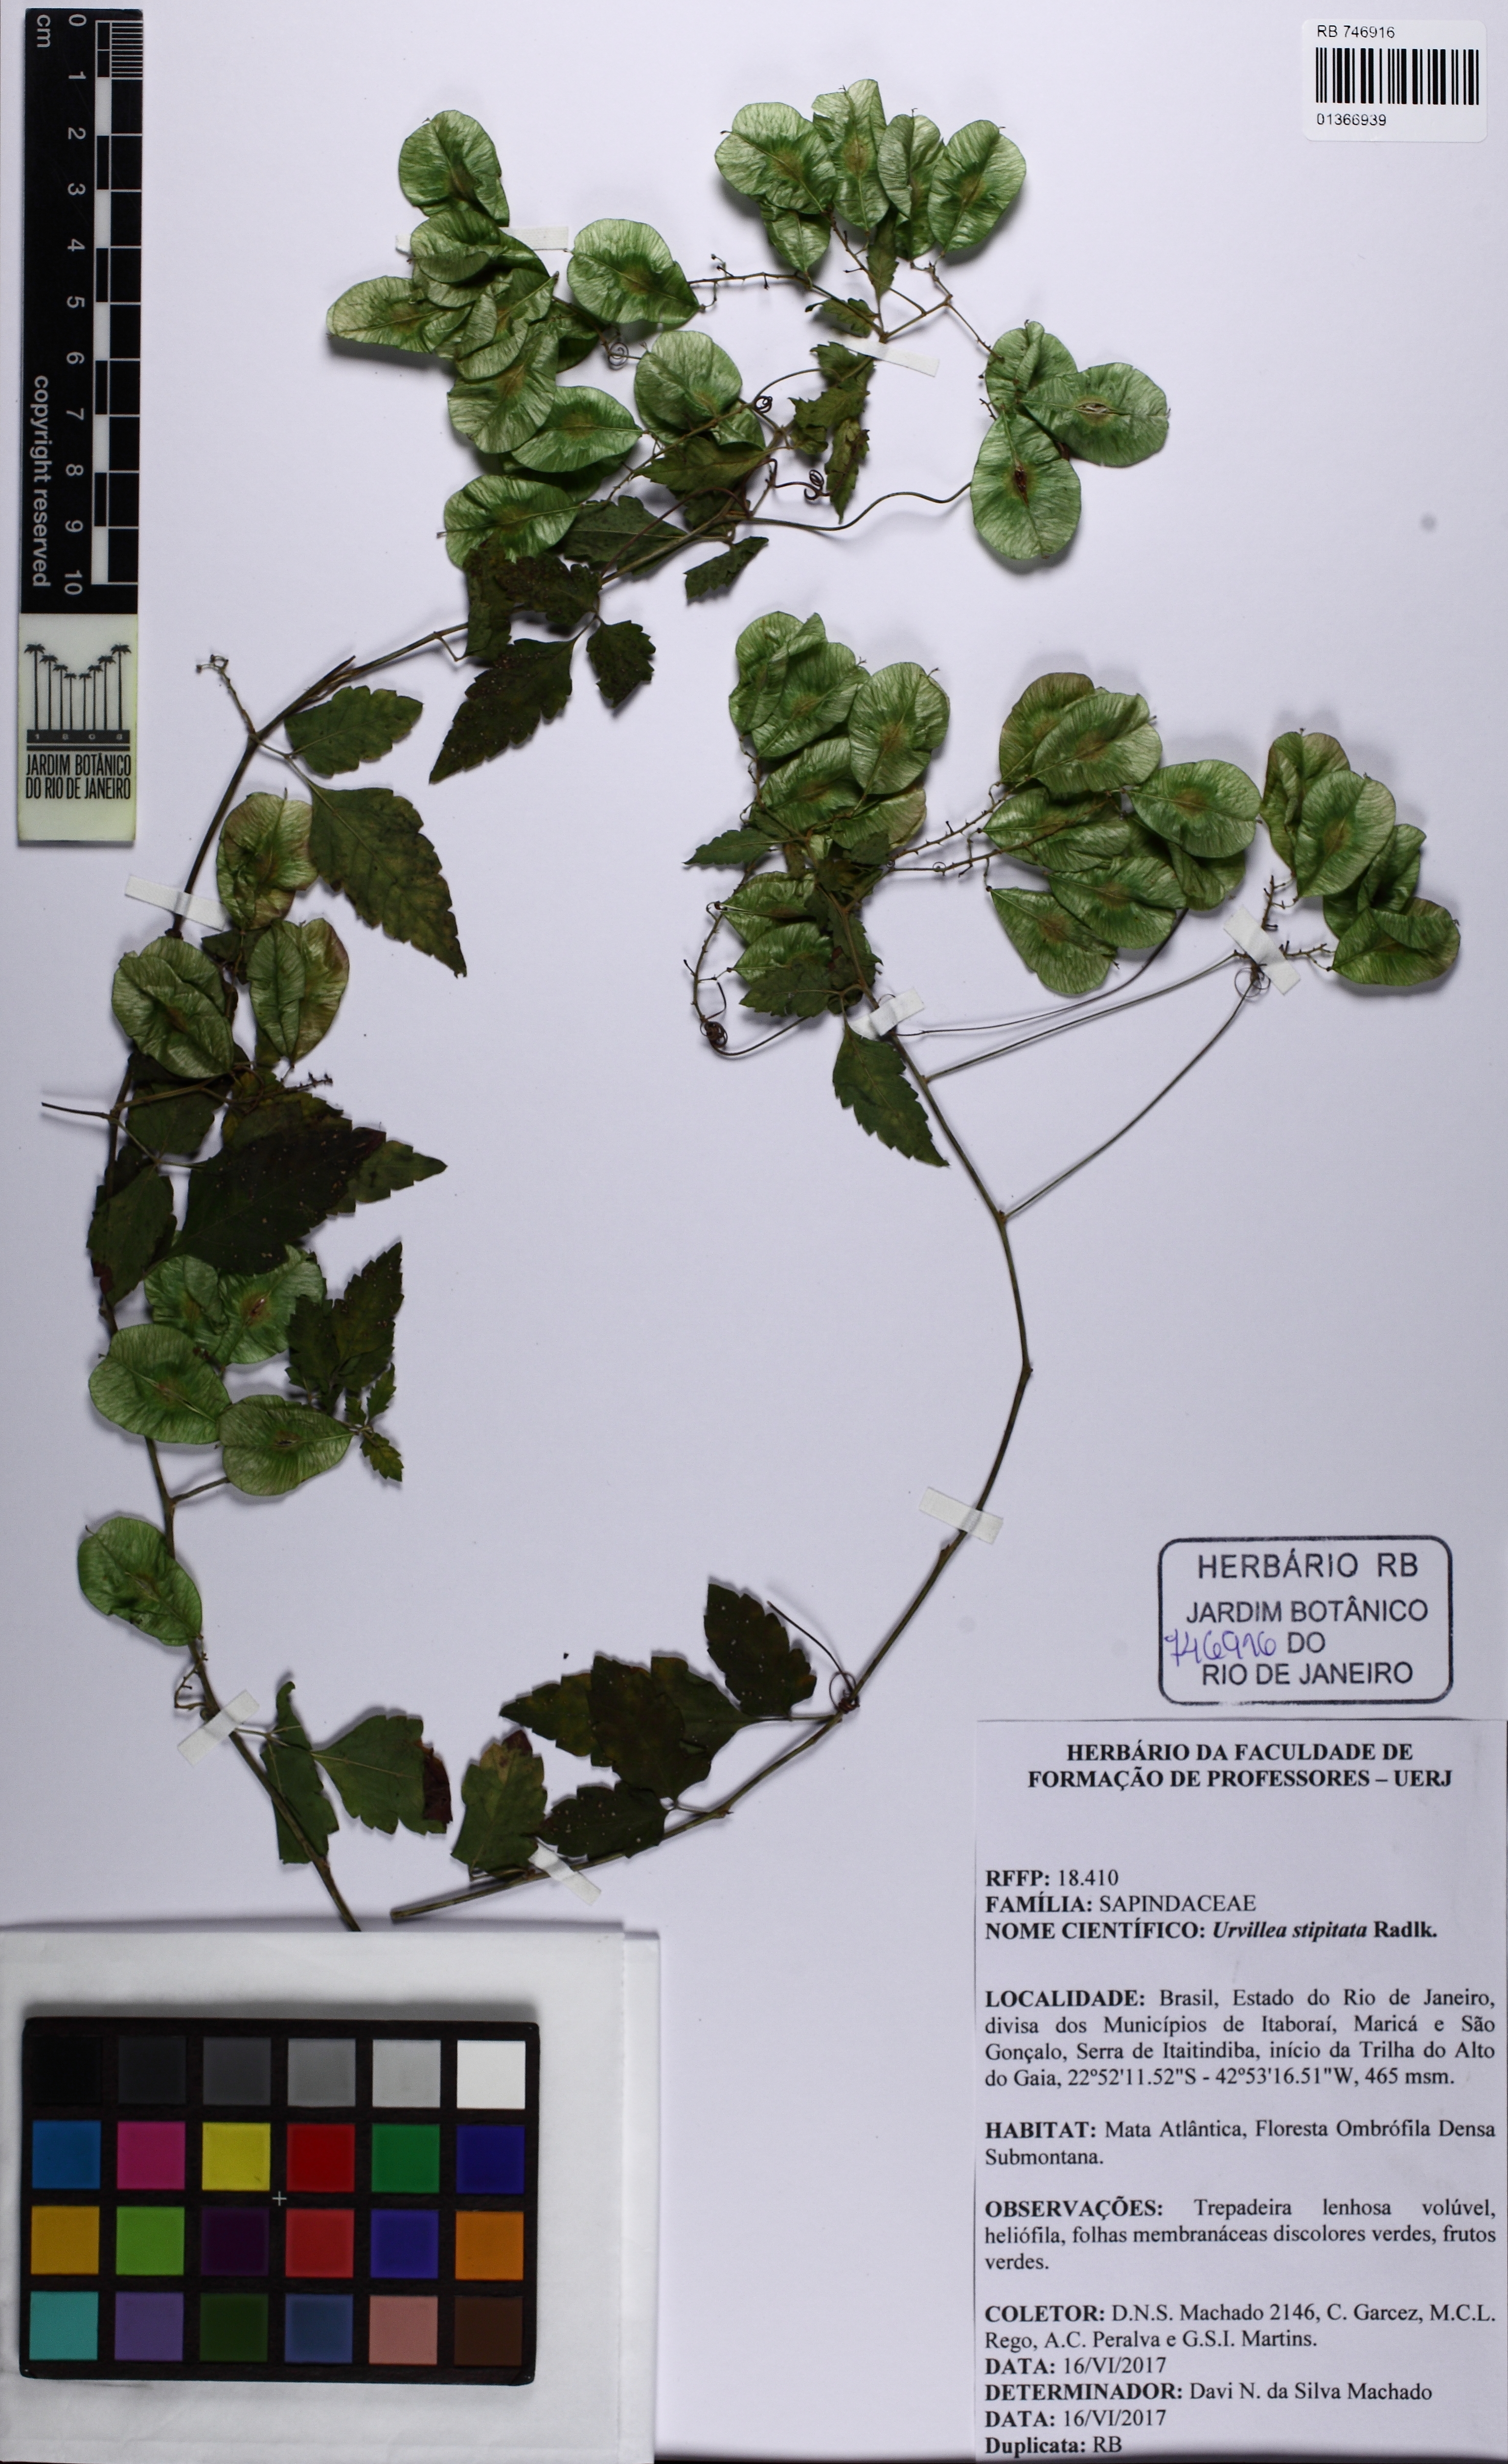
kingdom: Plantae
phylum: Tracheophyta
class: Magnoliopsida
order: Sapindales
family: Sapindaceae
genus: Urvillea
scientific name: Urvillea stipitata
